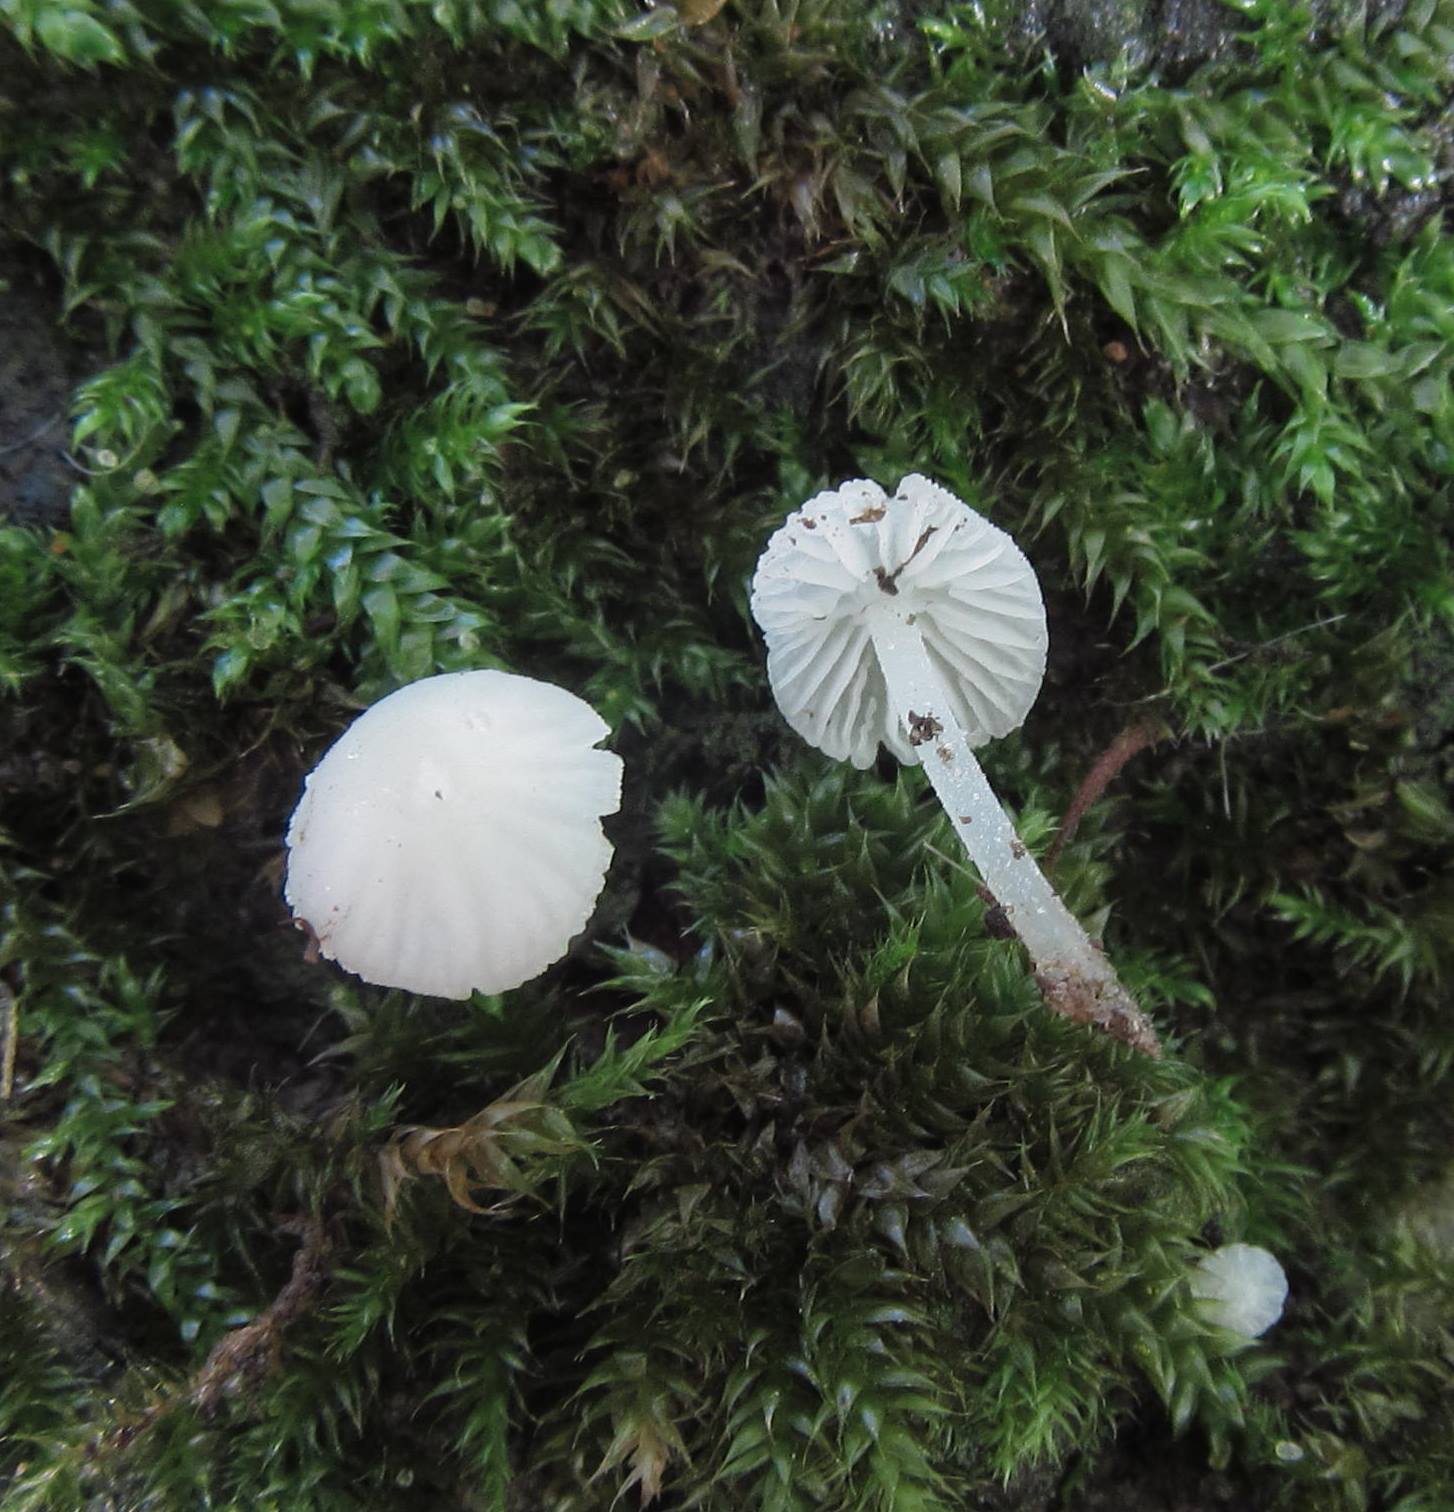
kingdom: Fungi
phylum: Basidiomycota
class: Agaricomycetes
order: Agaricales
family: Porotheleaceae
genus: Phloeomana
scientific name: Phloeomana minutula
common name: bleg huesvamp
